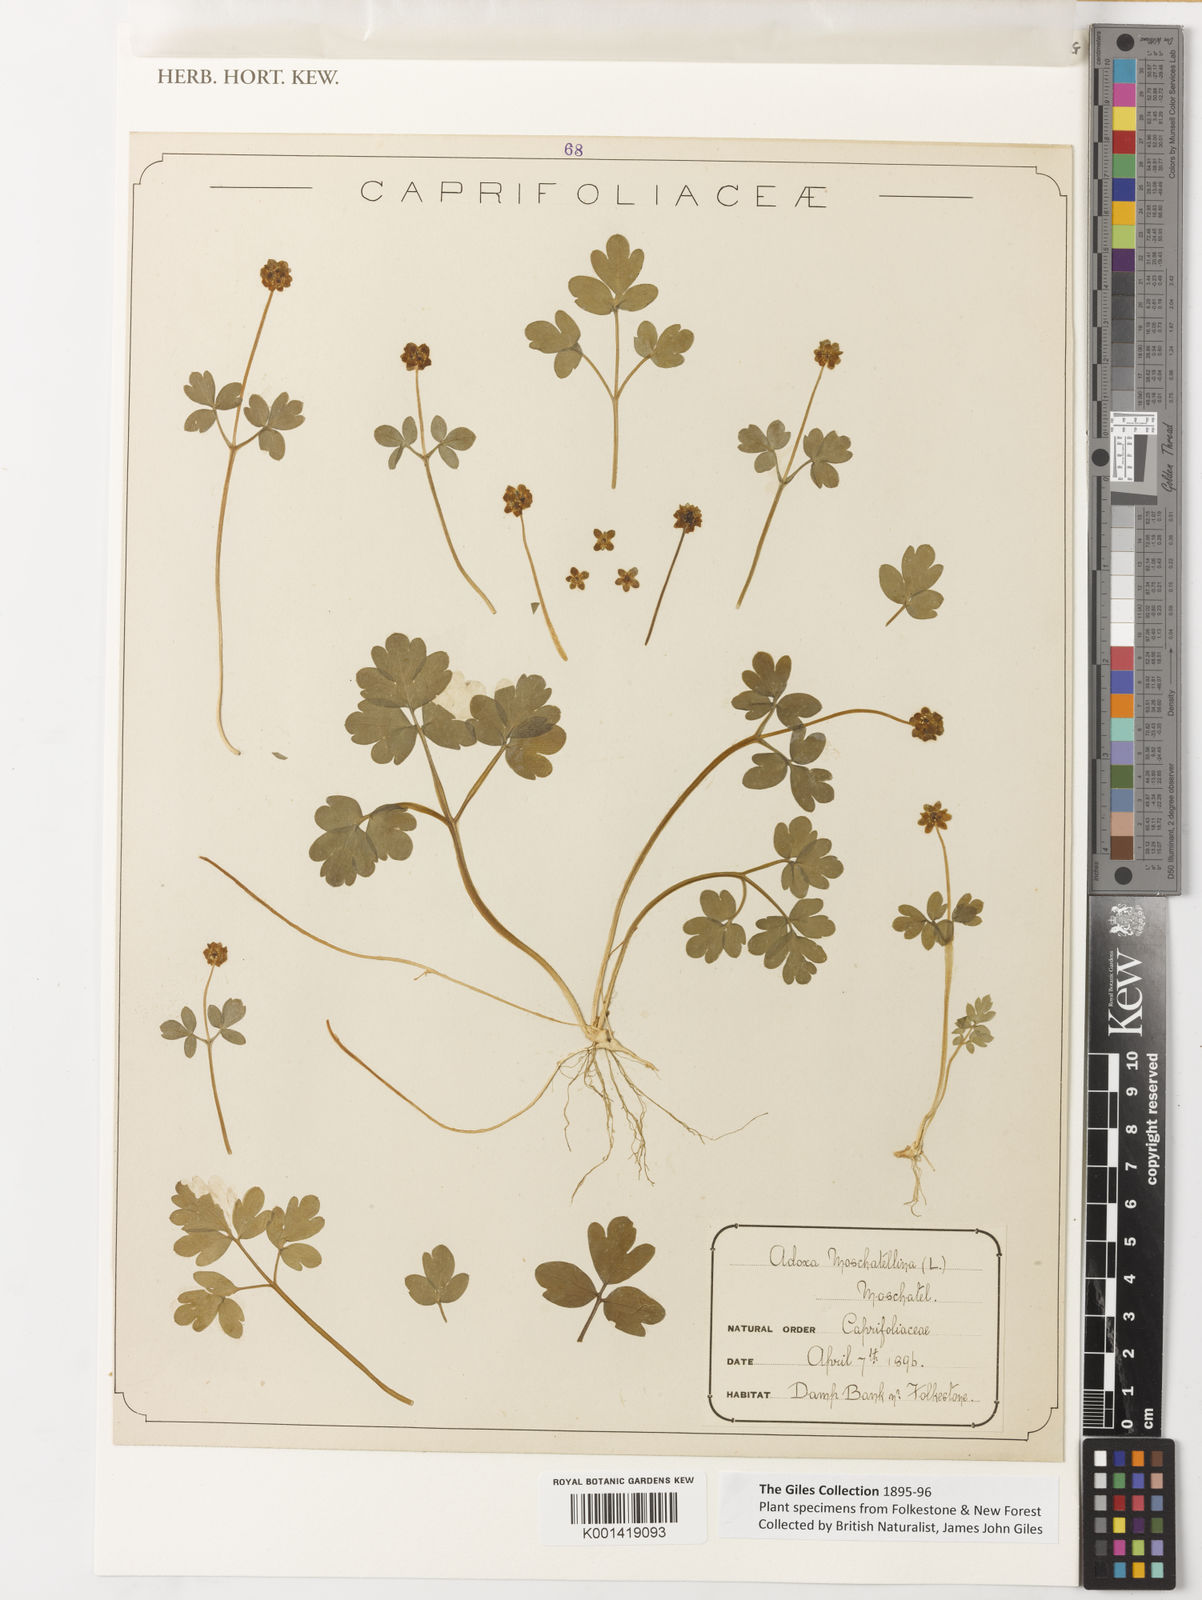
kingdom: Plantae
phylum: Tracheophyta
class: Magnoliopsida
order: Dipsacales
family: Viburnaceae
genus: Adoxa
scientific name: Adoxa moschatellina
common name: Moschatel
